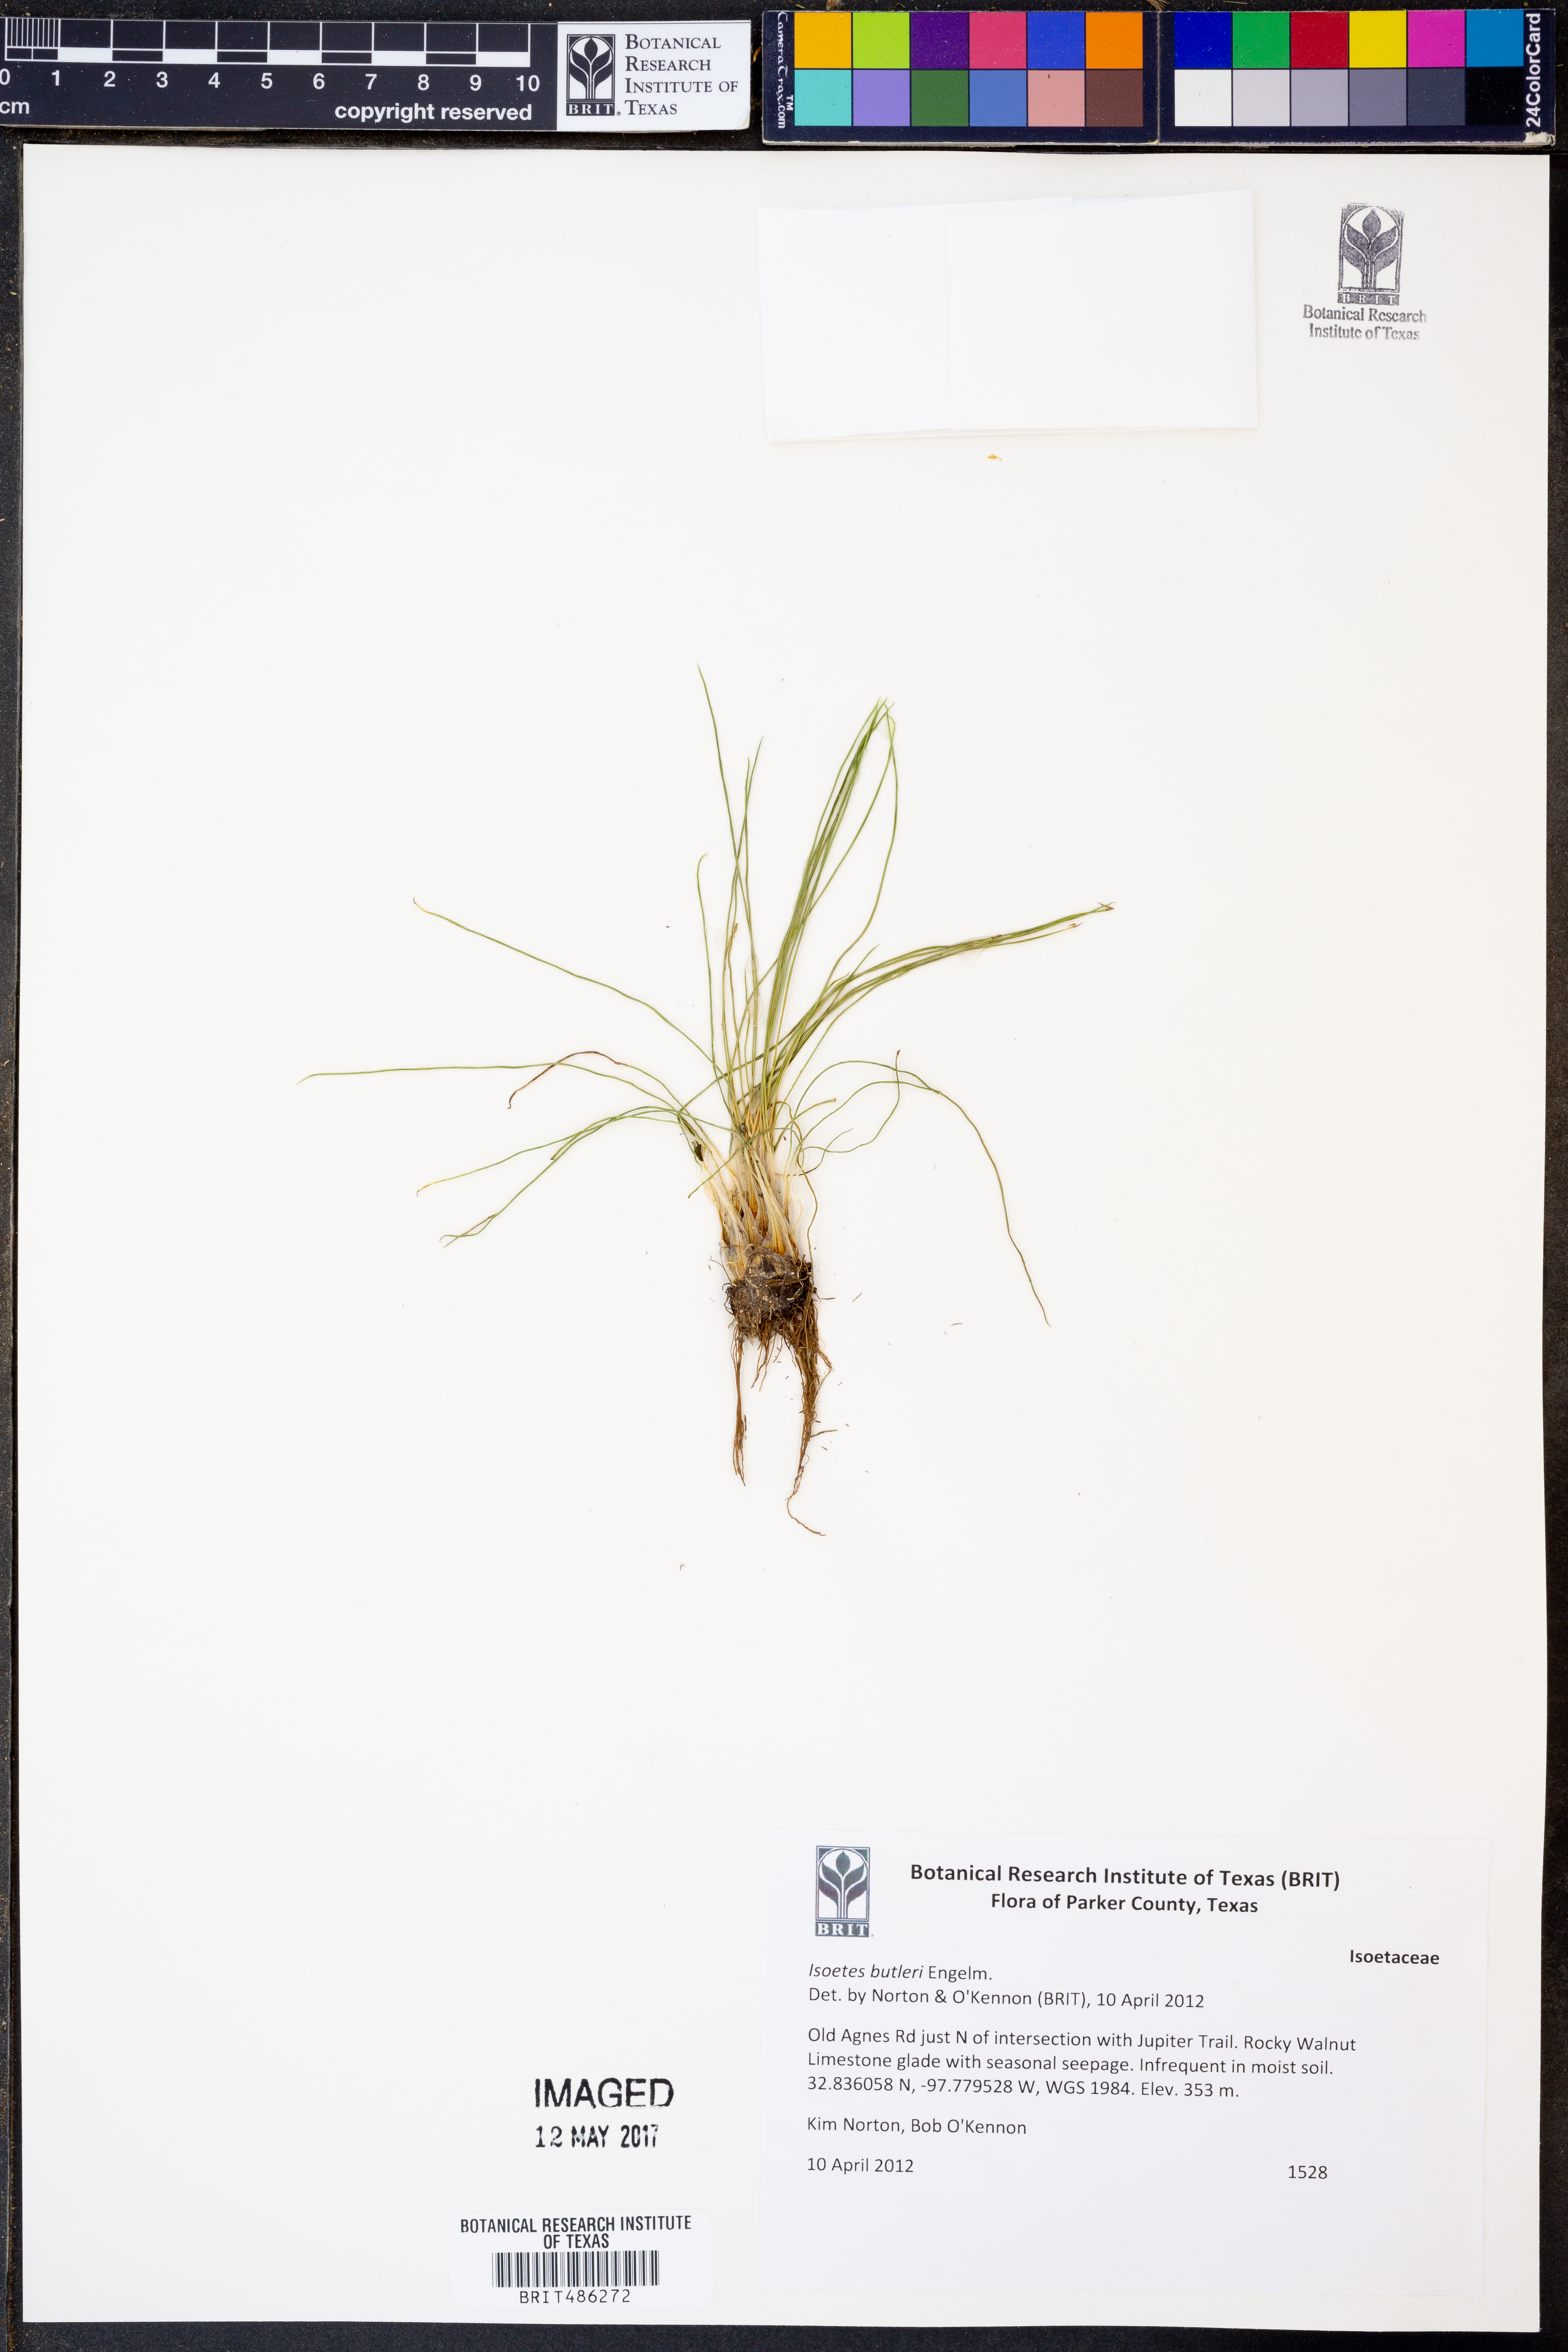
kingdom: Plantae
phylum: Tracheophyta
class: Lycopodiopsida
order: Isoetales
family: Isoetaceae
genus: Isoetes
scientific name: Isoetes butleri
